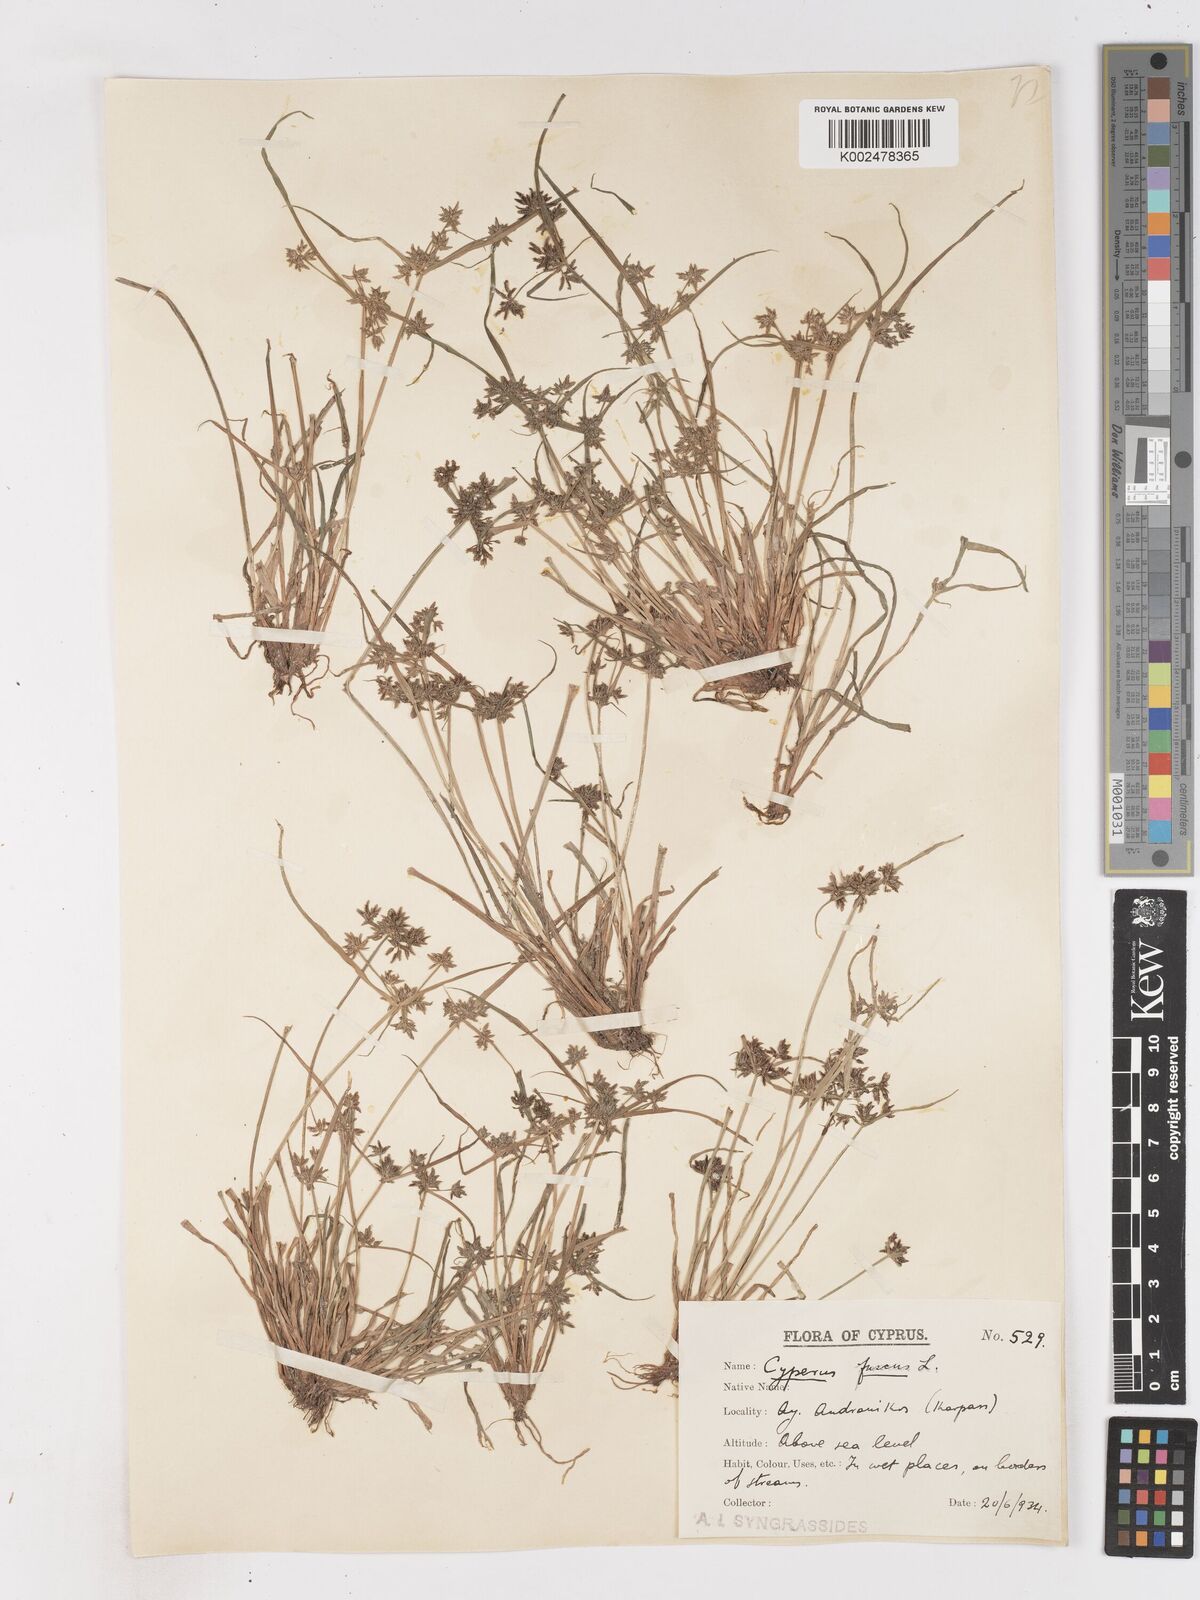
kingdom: Plantae
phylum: Tracheophyta
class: Liliopsida
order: Poales
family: Cyperaceae
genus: Cyperus
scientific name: Cyperus fuscus
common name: Brown galingale
